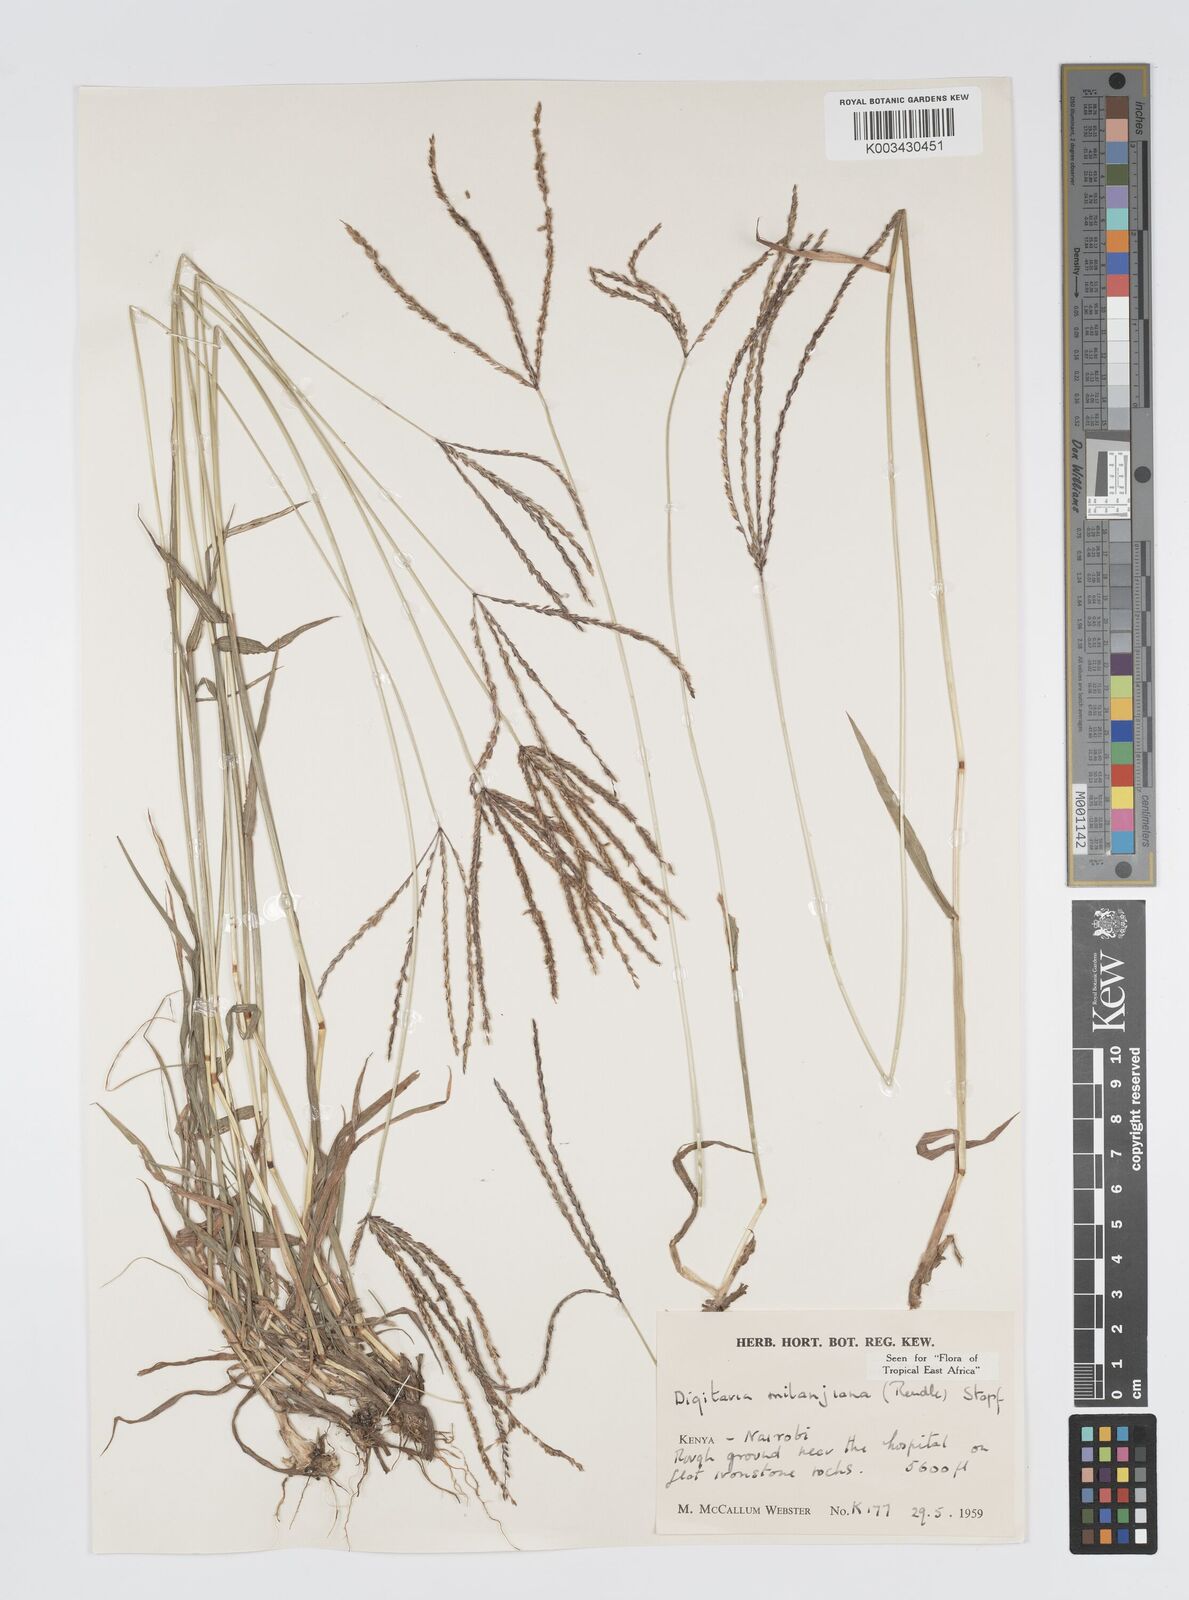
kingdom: Plantae
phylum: Tracheophyta
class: Liliopsida
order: Poales
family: Poaceae
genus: Digitaria
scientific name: Digitaria milanjiana
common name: Madagascar crabgrass
